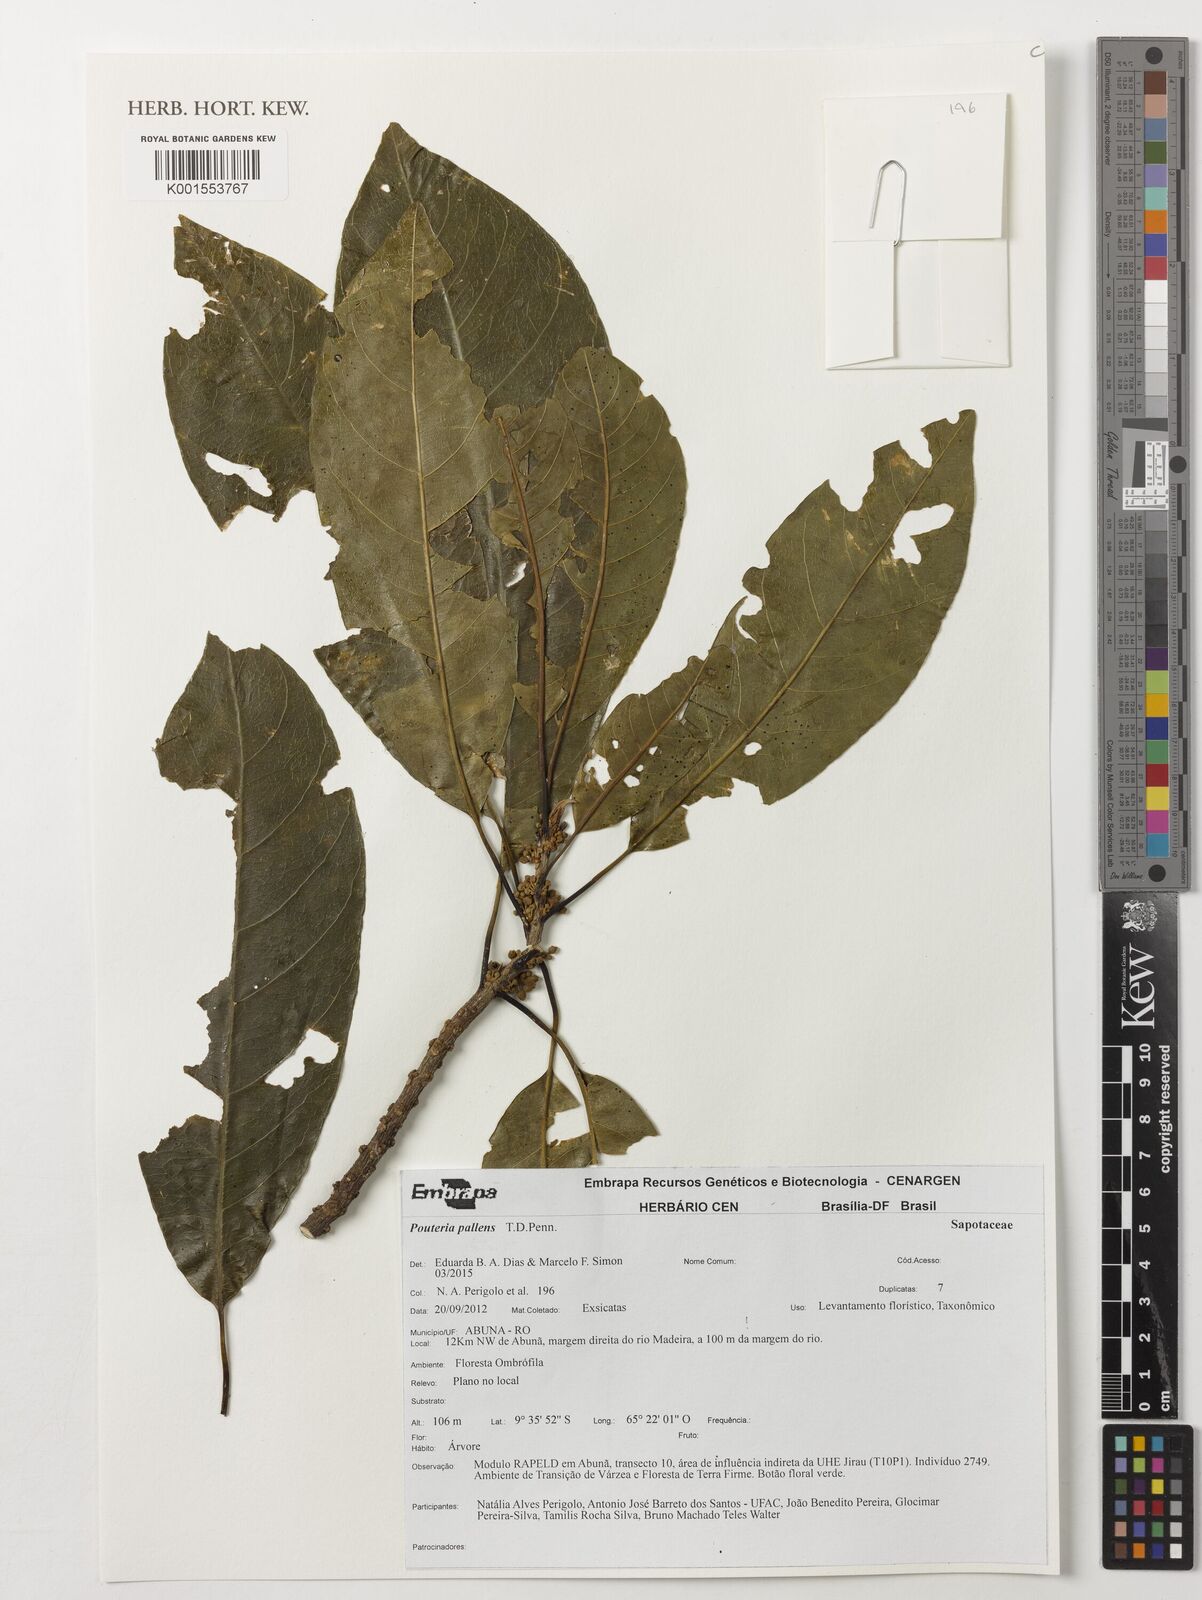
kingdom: Plantae
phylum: Tracheophyta
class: Magnoliopsida
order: Ericales
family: Sapotaceae
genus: Pouteria
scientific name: Pouteria pallens
